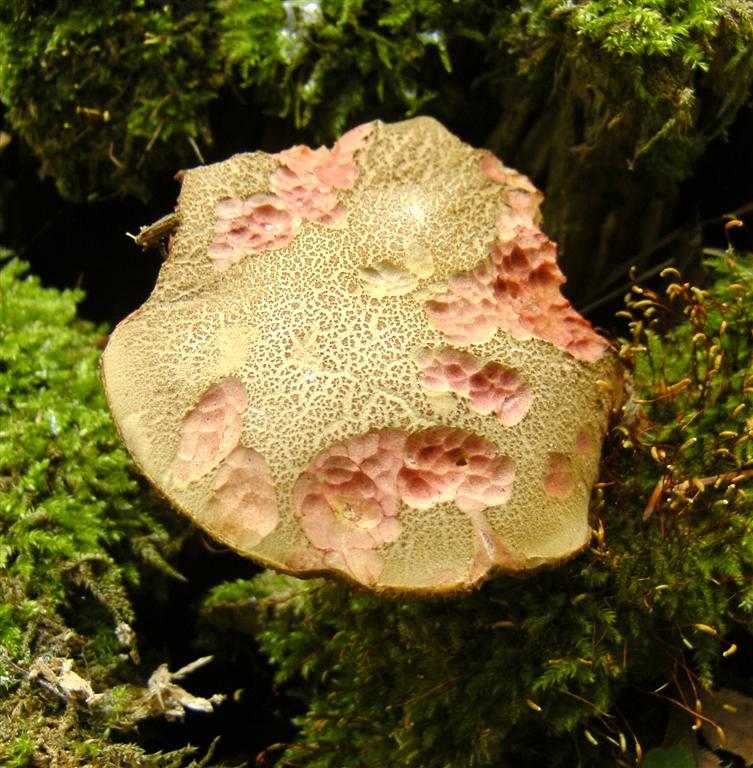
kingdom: Fungi
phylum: Basidiomycota
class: Agaricomycetes
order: Boletales
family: Boletaceae
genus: Xerocomellus
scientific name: Xerocomellus chrysenteron
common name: rødsprukken rørhat
